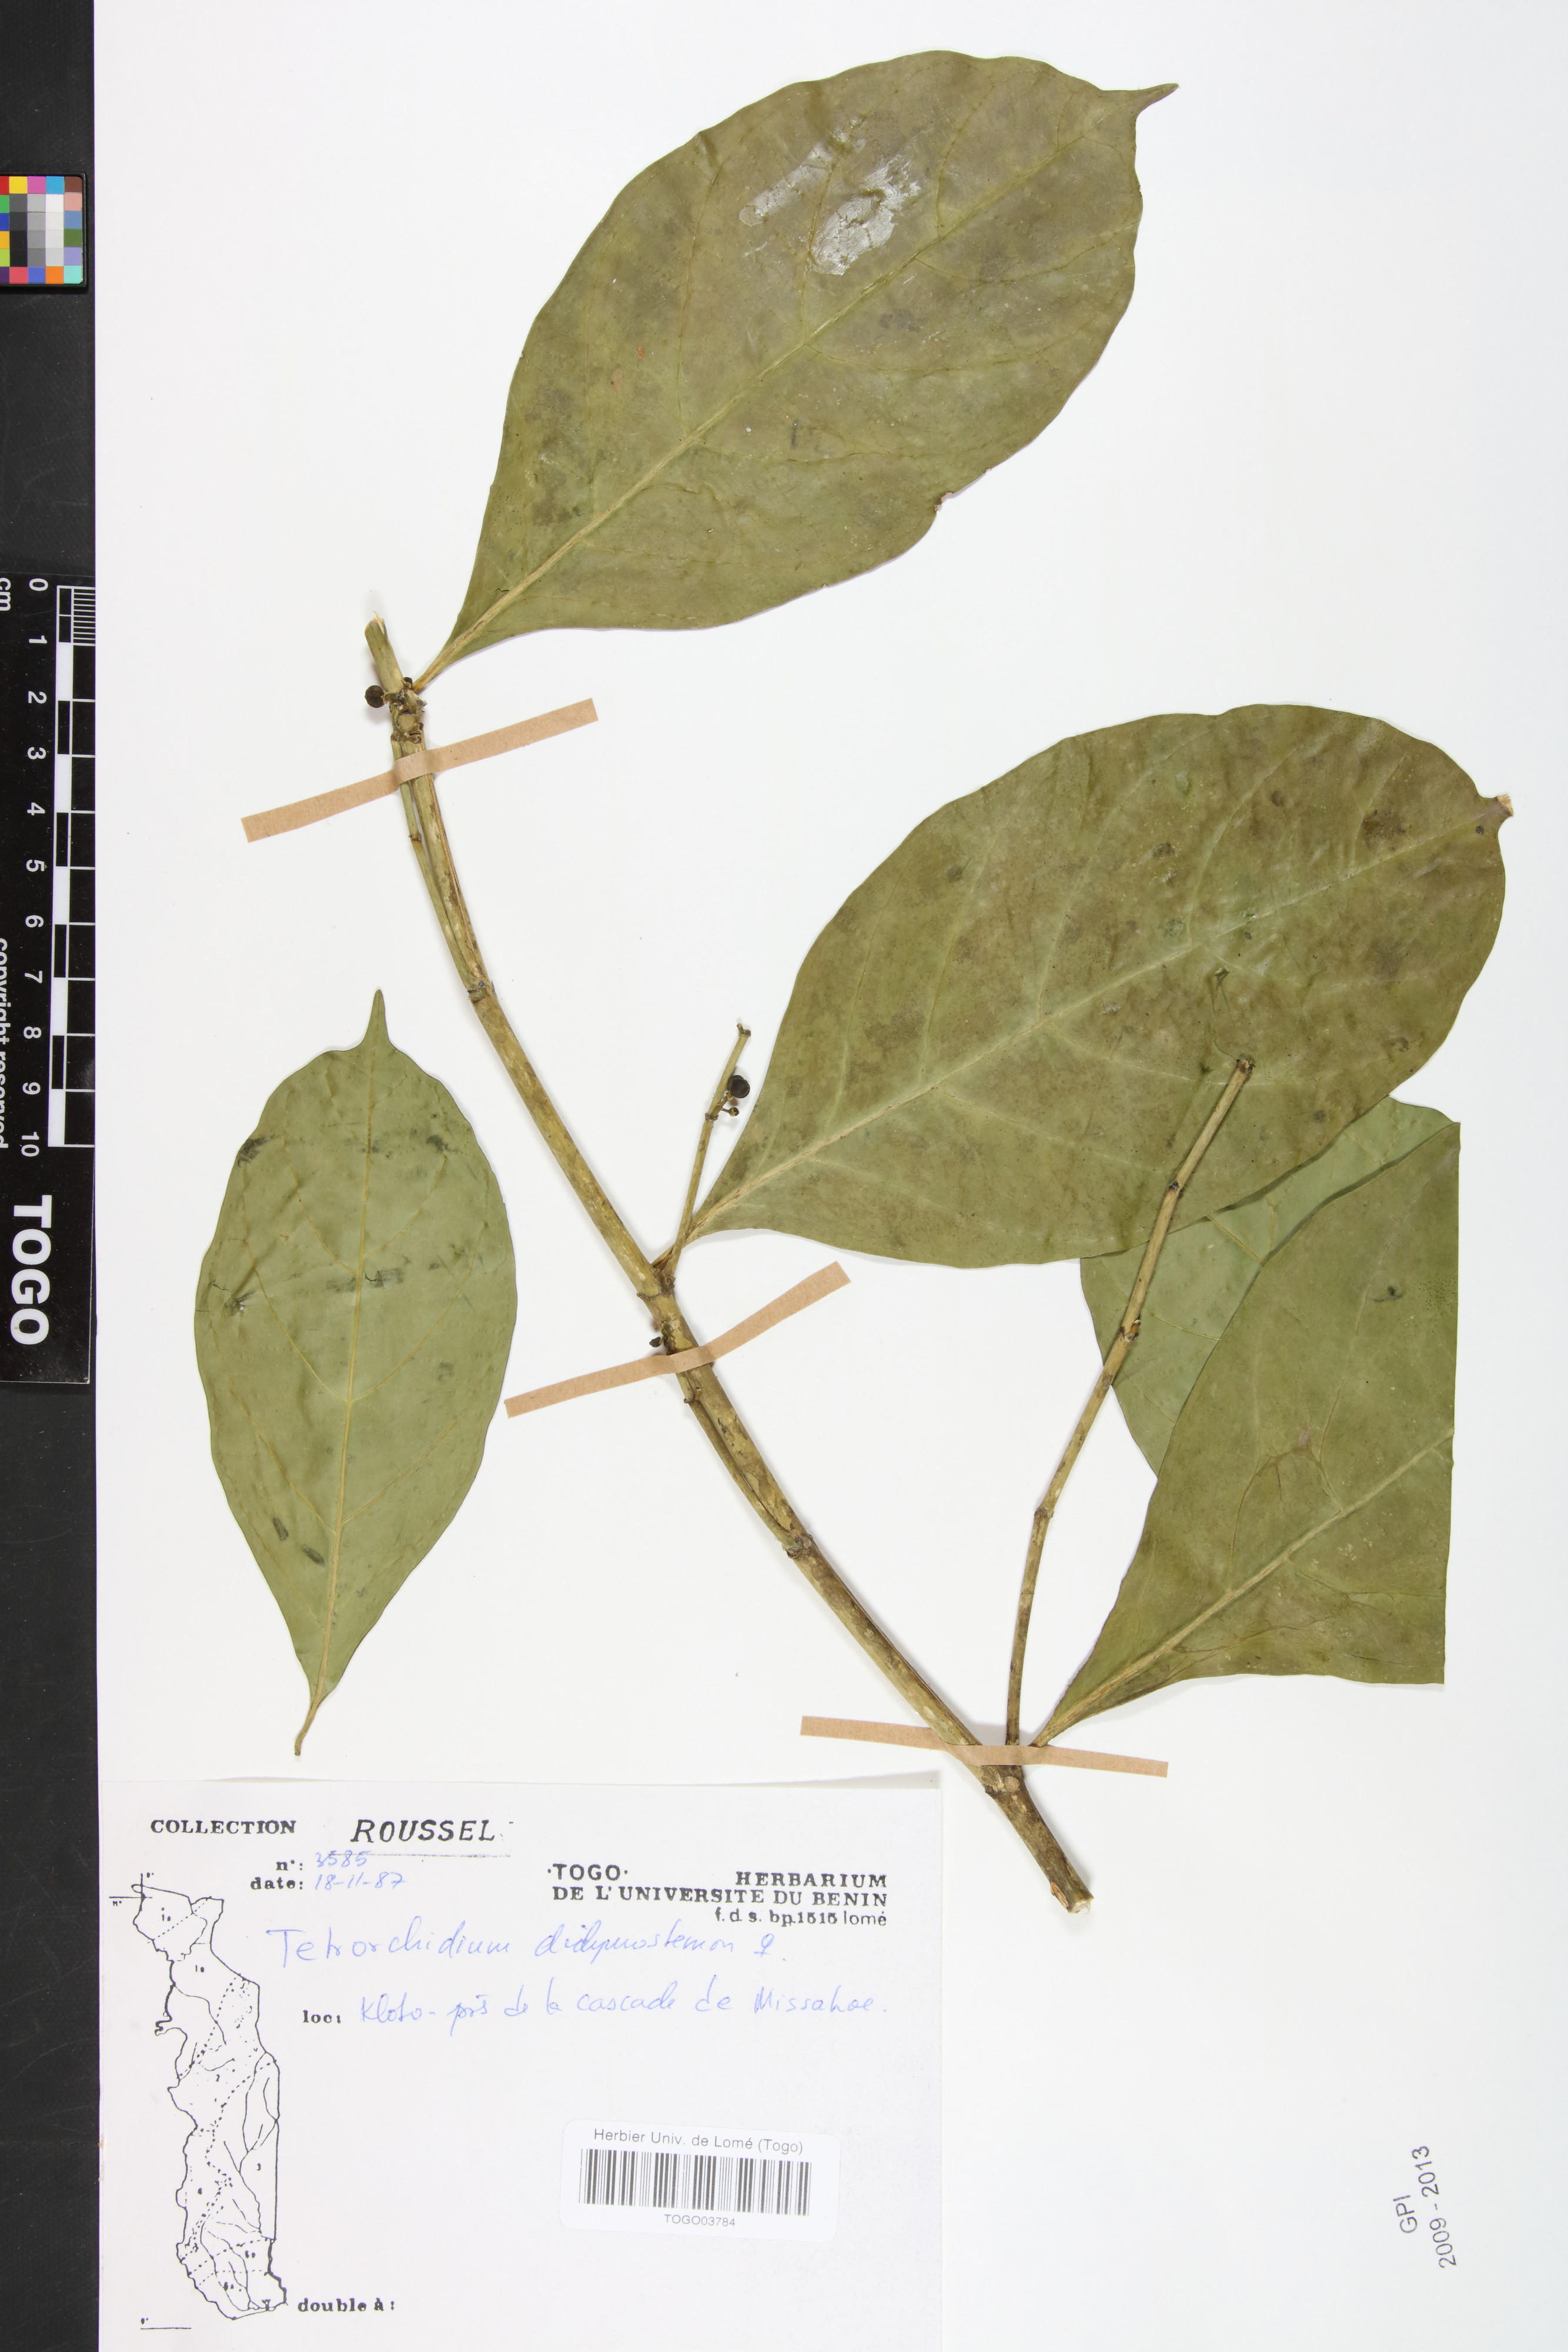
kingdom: Plantae
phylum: Tracheophyta
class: Magnoliopsida
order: Malpighiales
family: Euphorbiaceae
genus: Tetrorchidium
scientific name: Tetrorchidium didymostemon
